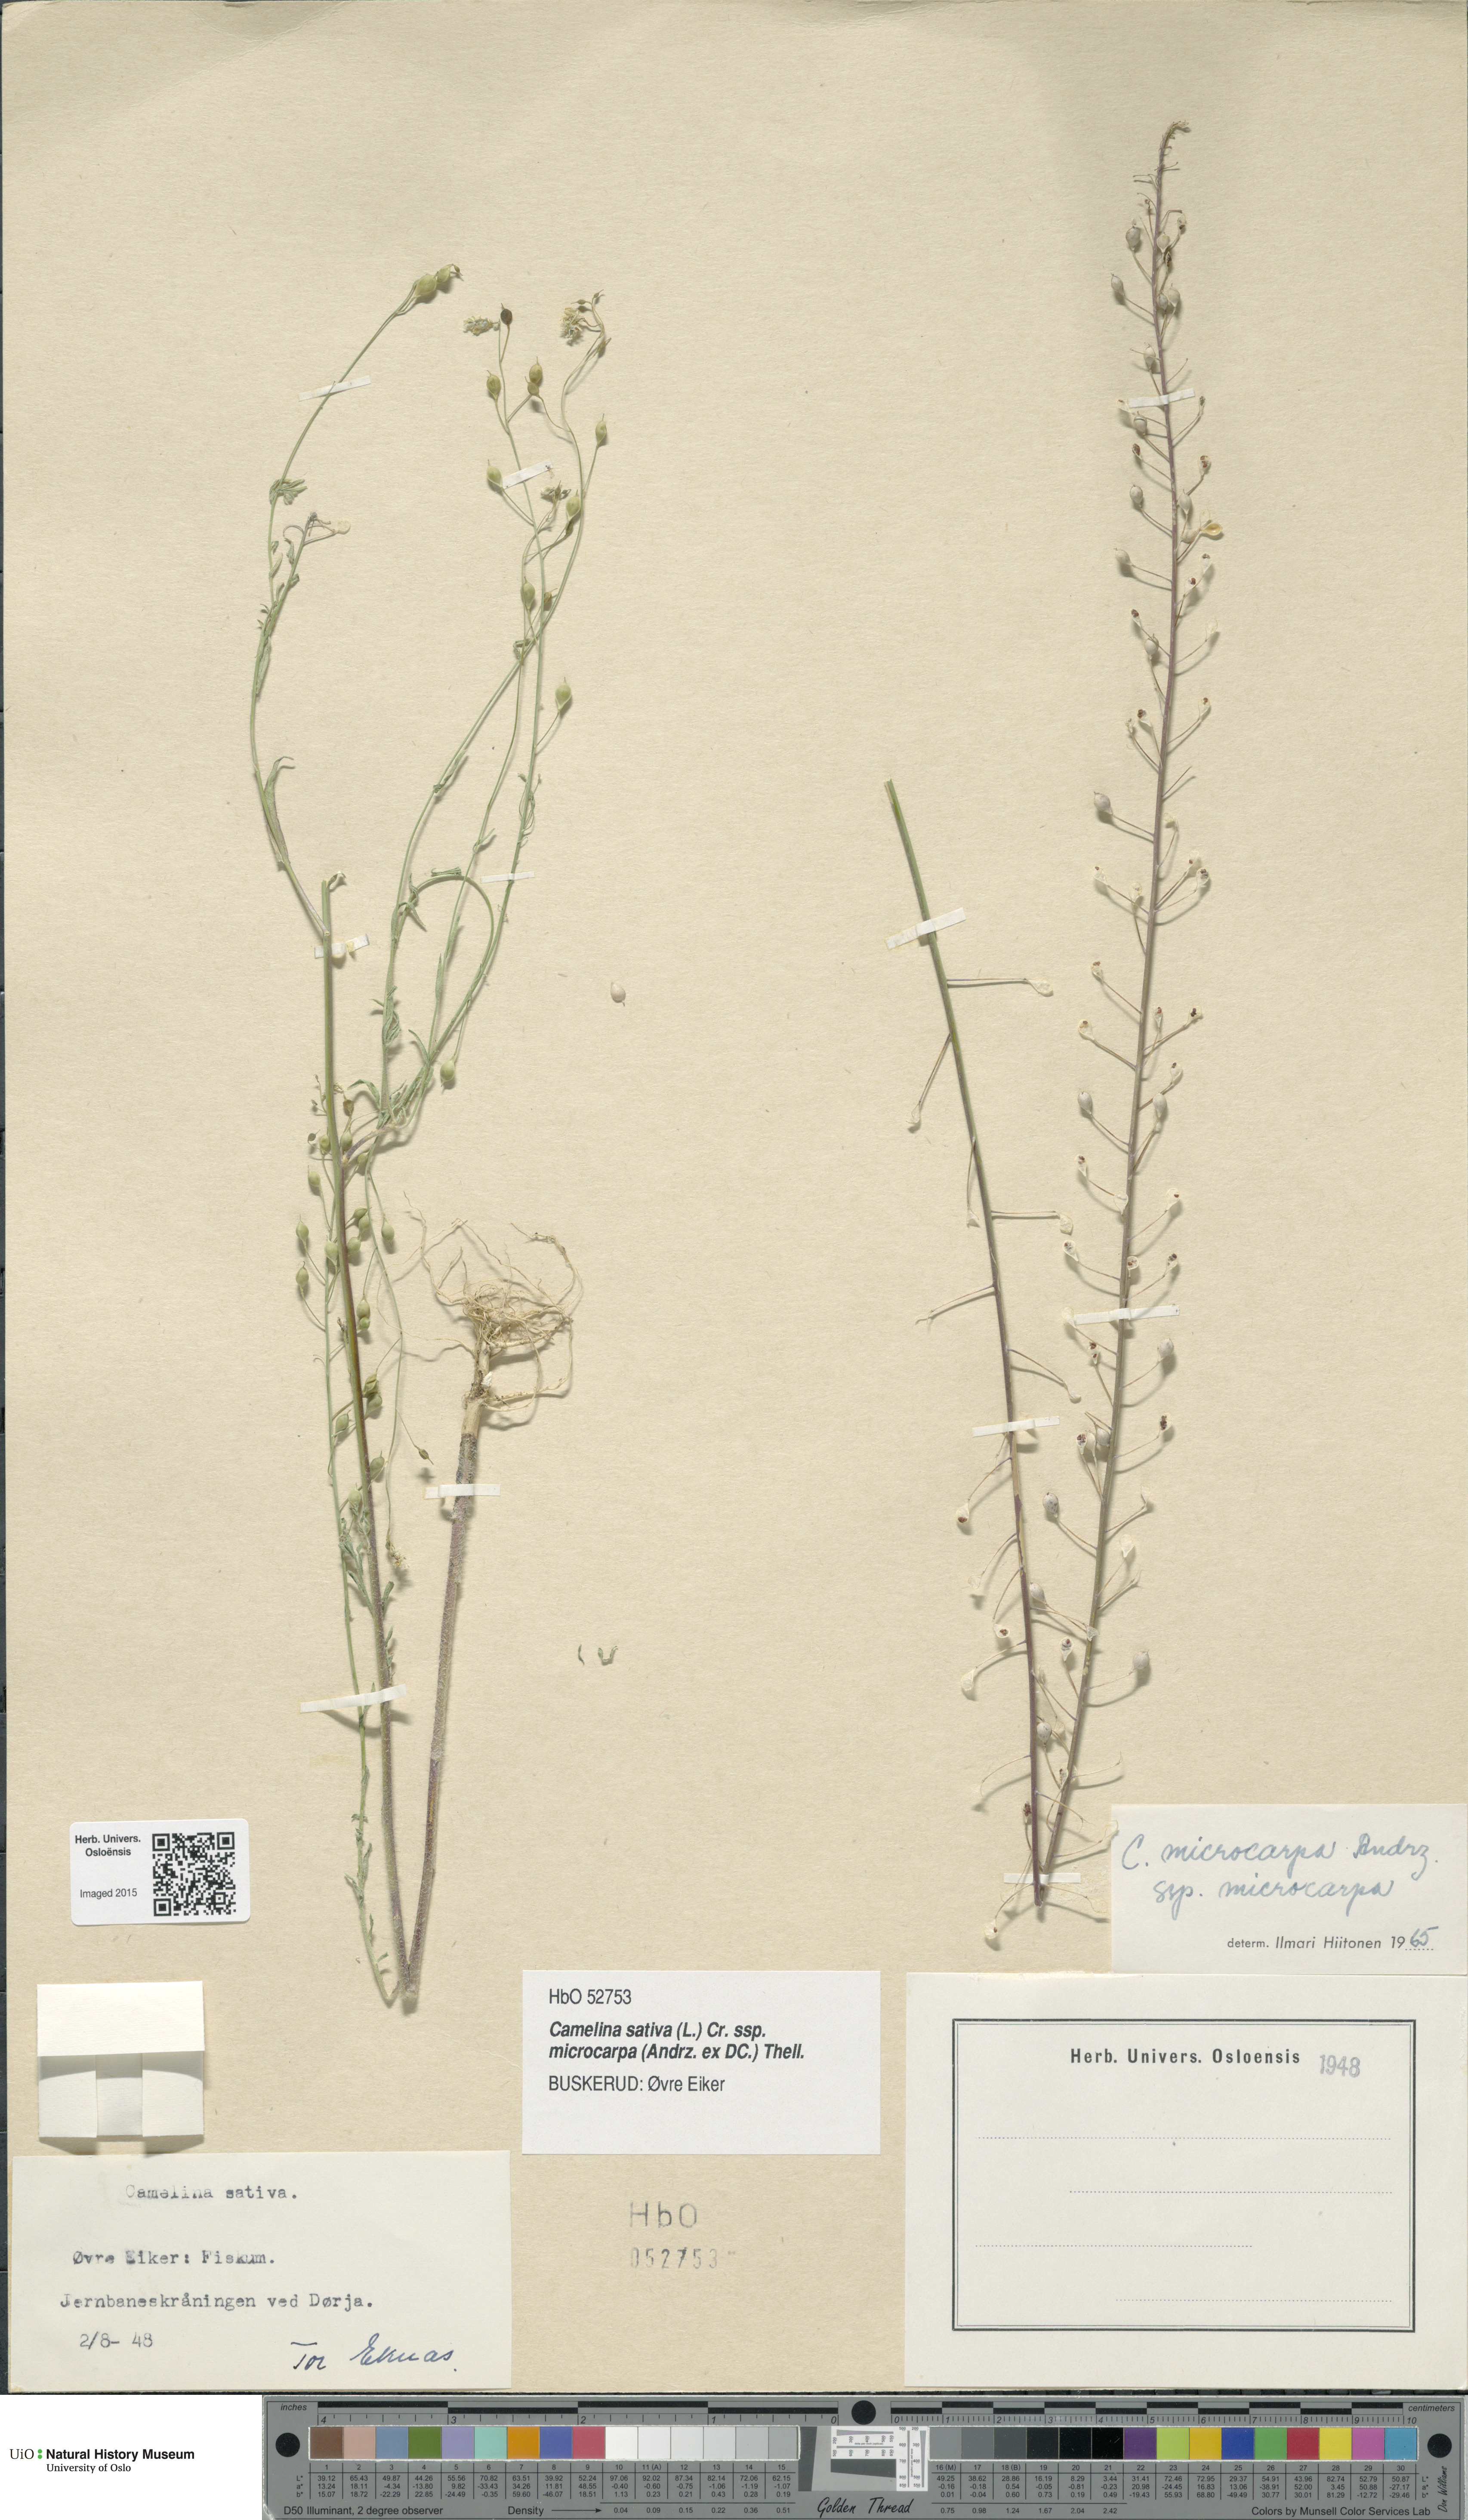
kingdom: Plantae
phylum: Tracheophyta
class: Magnoliopsida
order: Brassicales
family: Brassicaceae
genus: Camelina
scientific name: Camelina sativa
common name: Gold-of-pleasure
